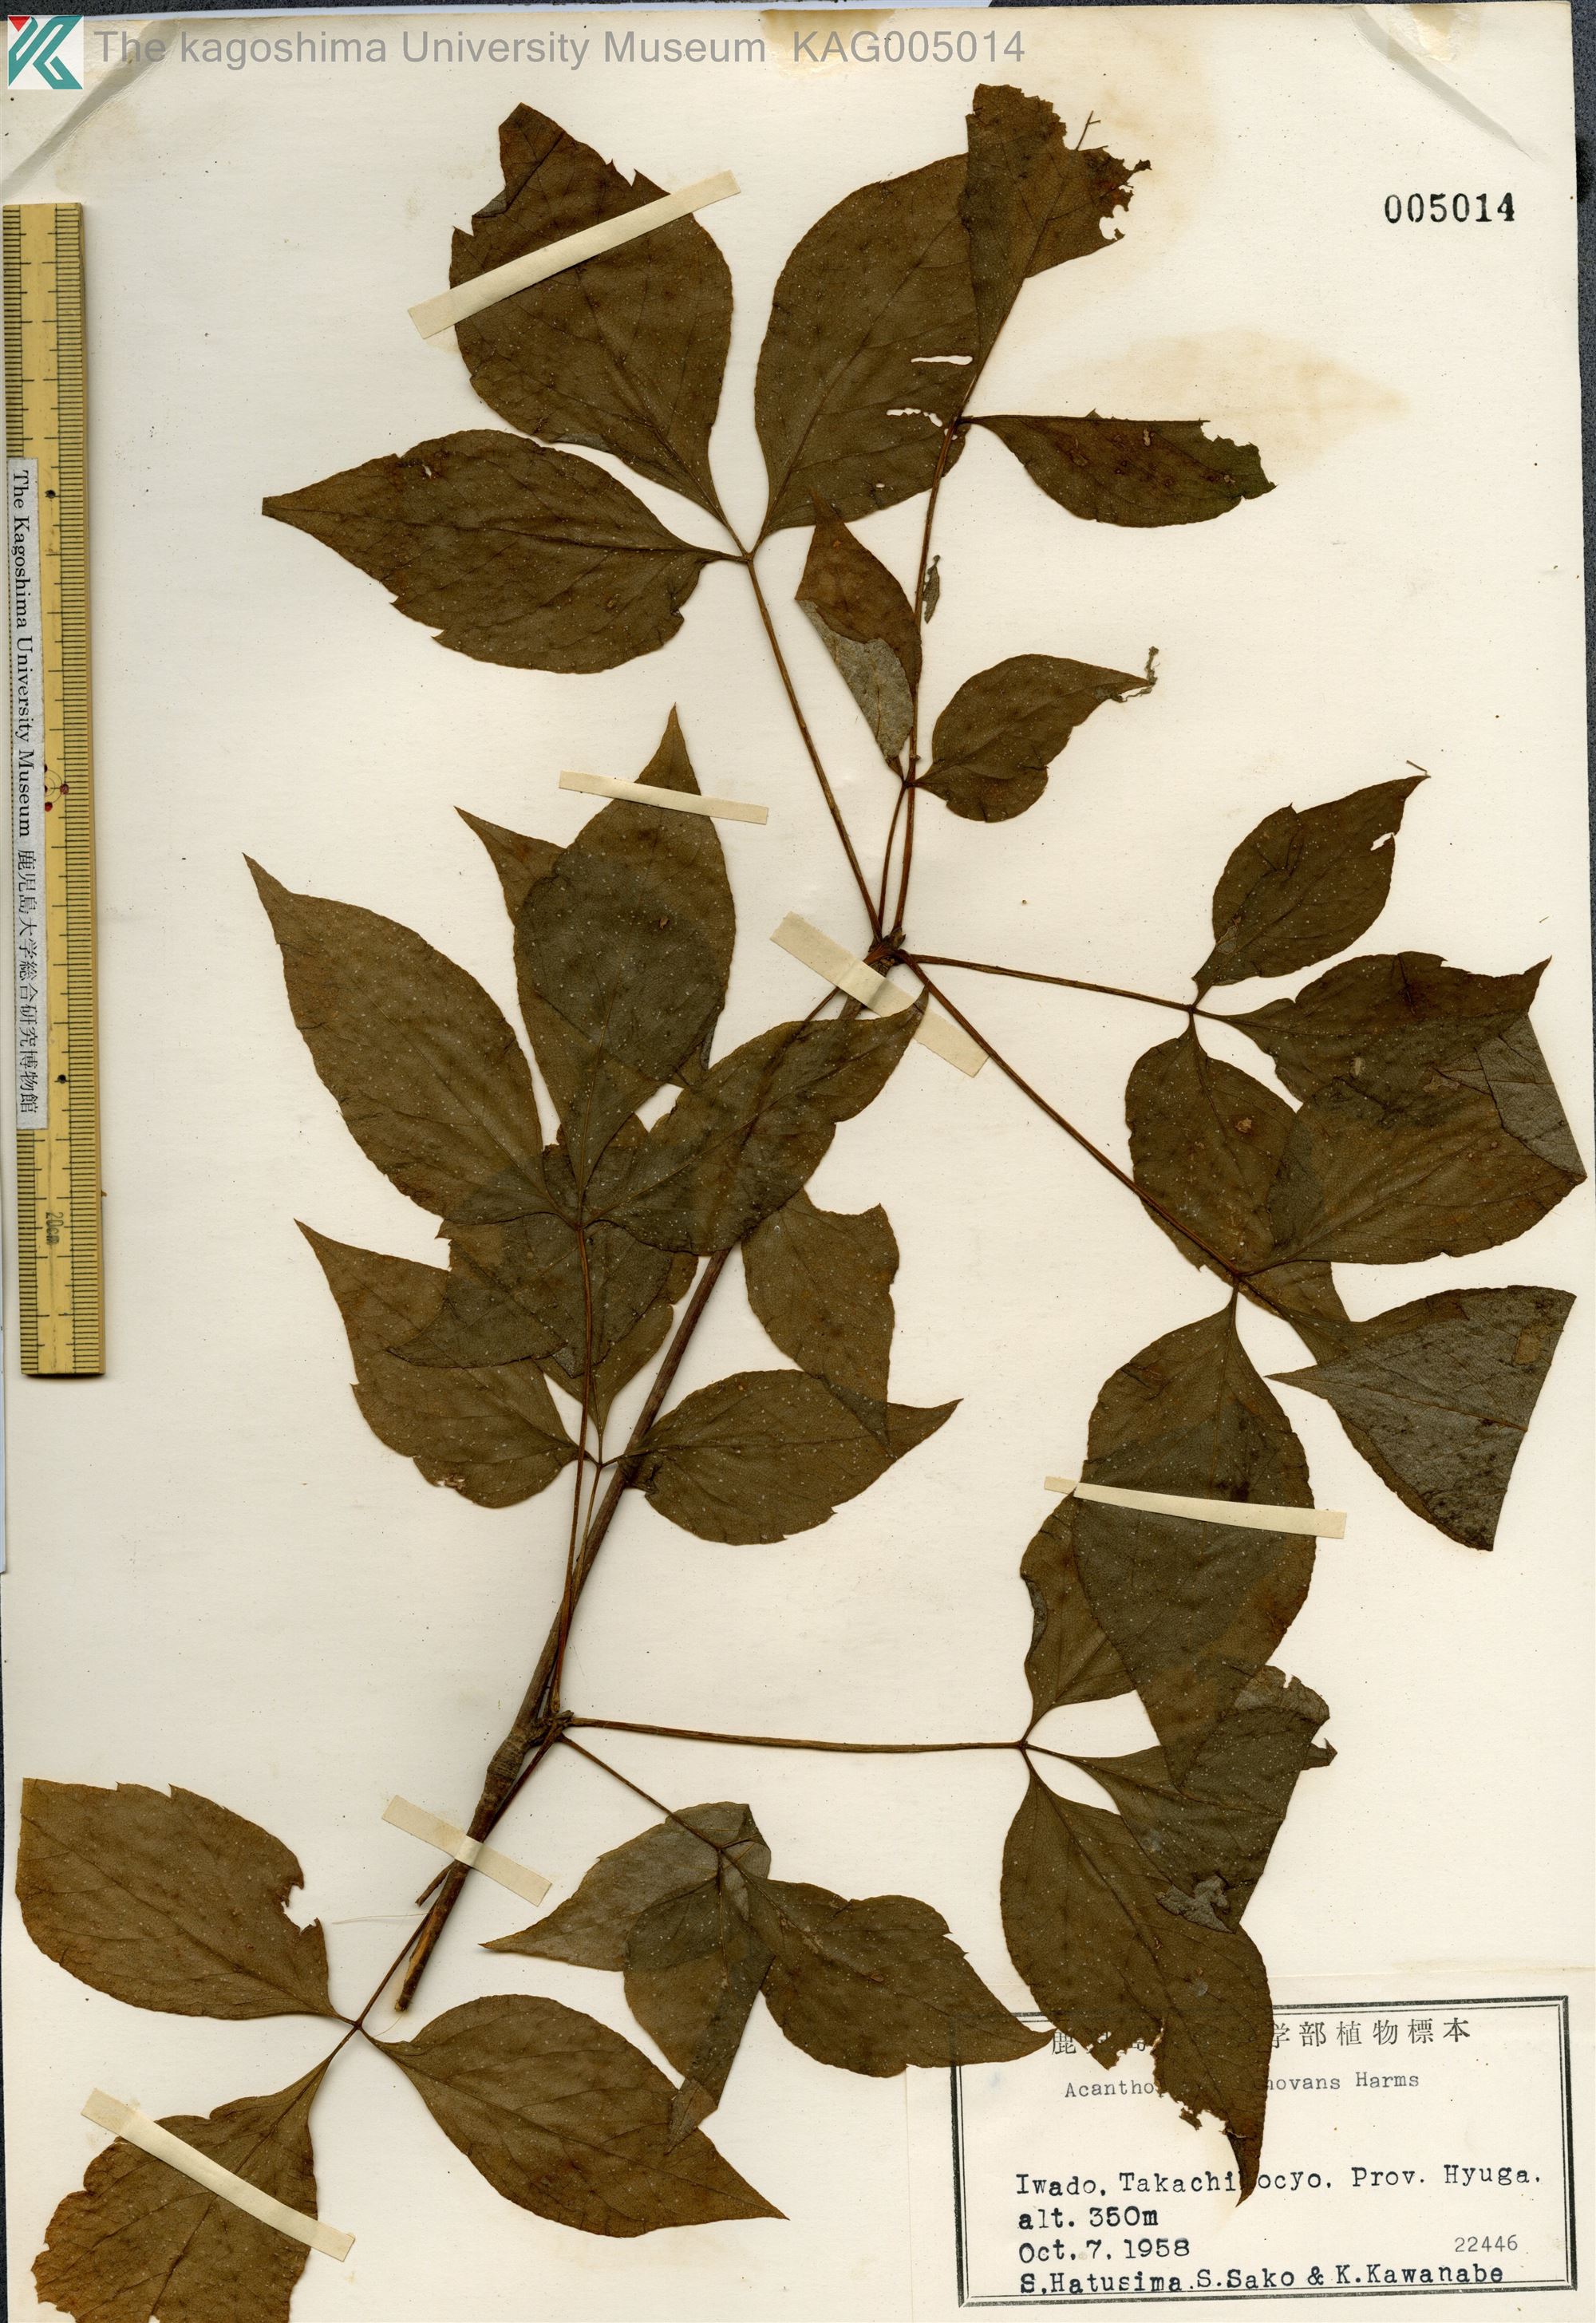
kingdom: Plantae
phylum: Tracheophyta
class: Magnoliopsida
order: Apiales
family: Araliaceae
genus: Gamblea
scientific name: Gamblea innovans
